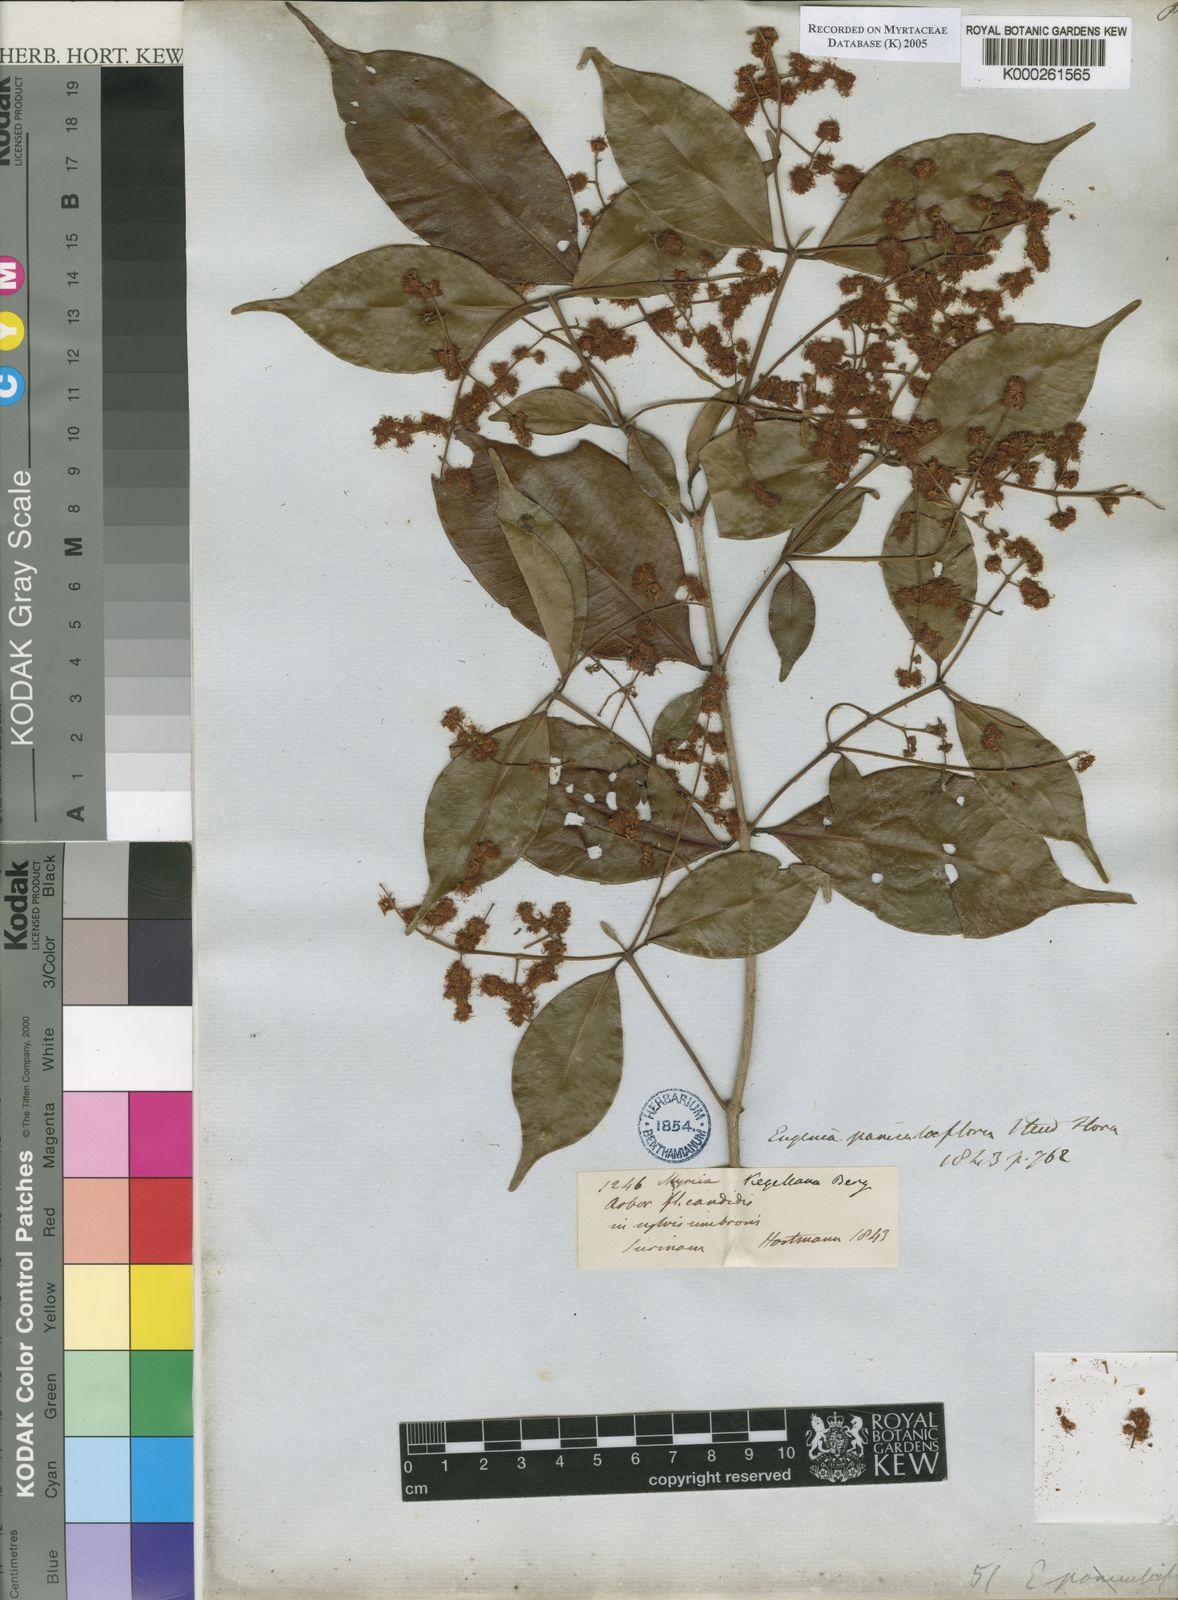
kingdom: Plantae
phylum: Tracheophyta
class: Magnoliopsida
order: Myrtales
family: Myrtaceae
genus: Myrcia
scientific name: Myrcia splendens
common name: Surinam cherry
